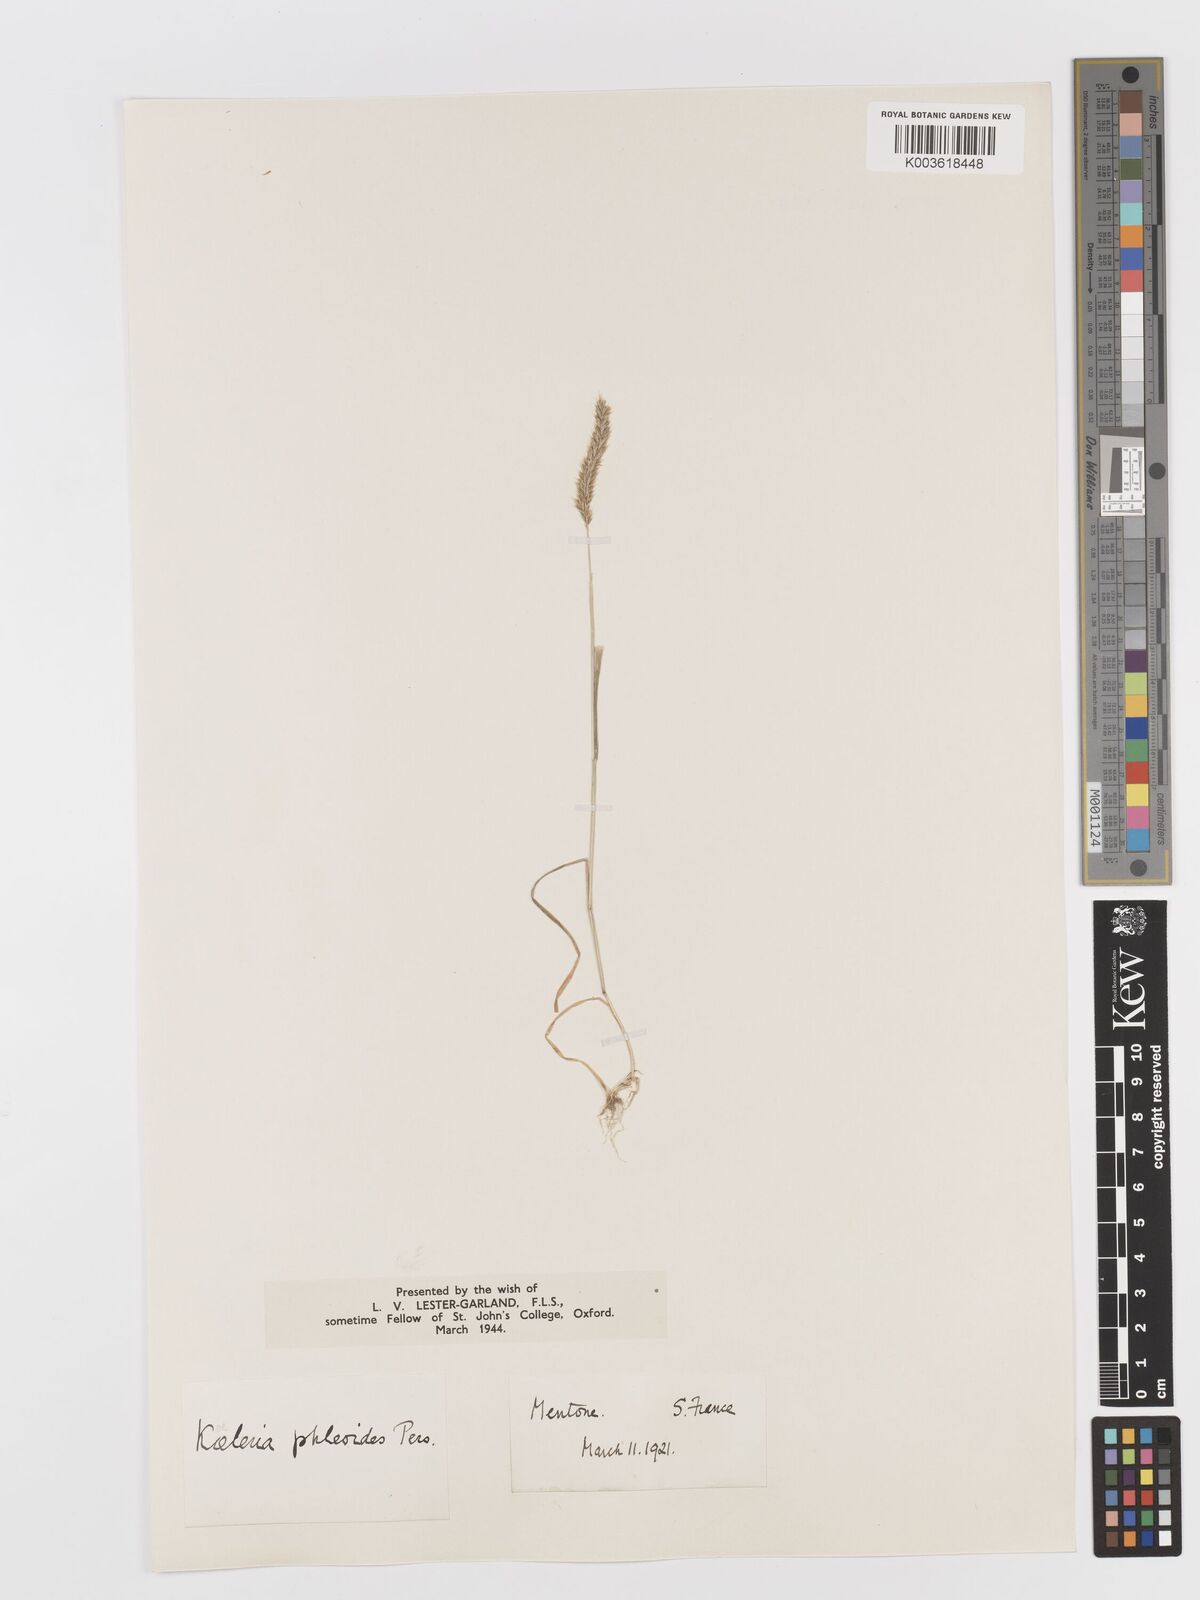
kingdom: Plantae
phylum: Tracheophyta
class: Liliopsida
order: Poales
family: Poaceae
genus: Rostraria
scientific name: Rostraria cristata
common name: Mediterranean hair-grass
